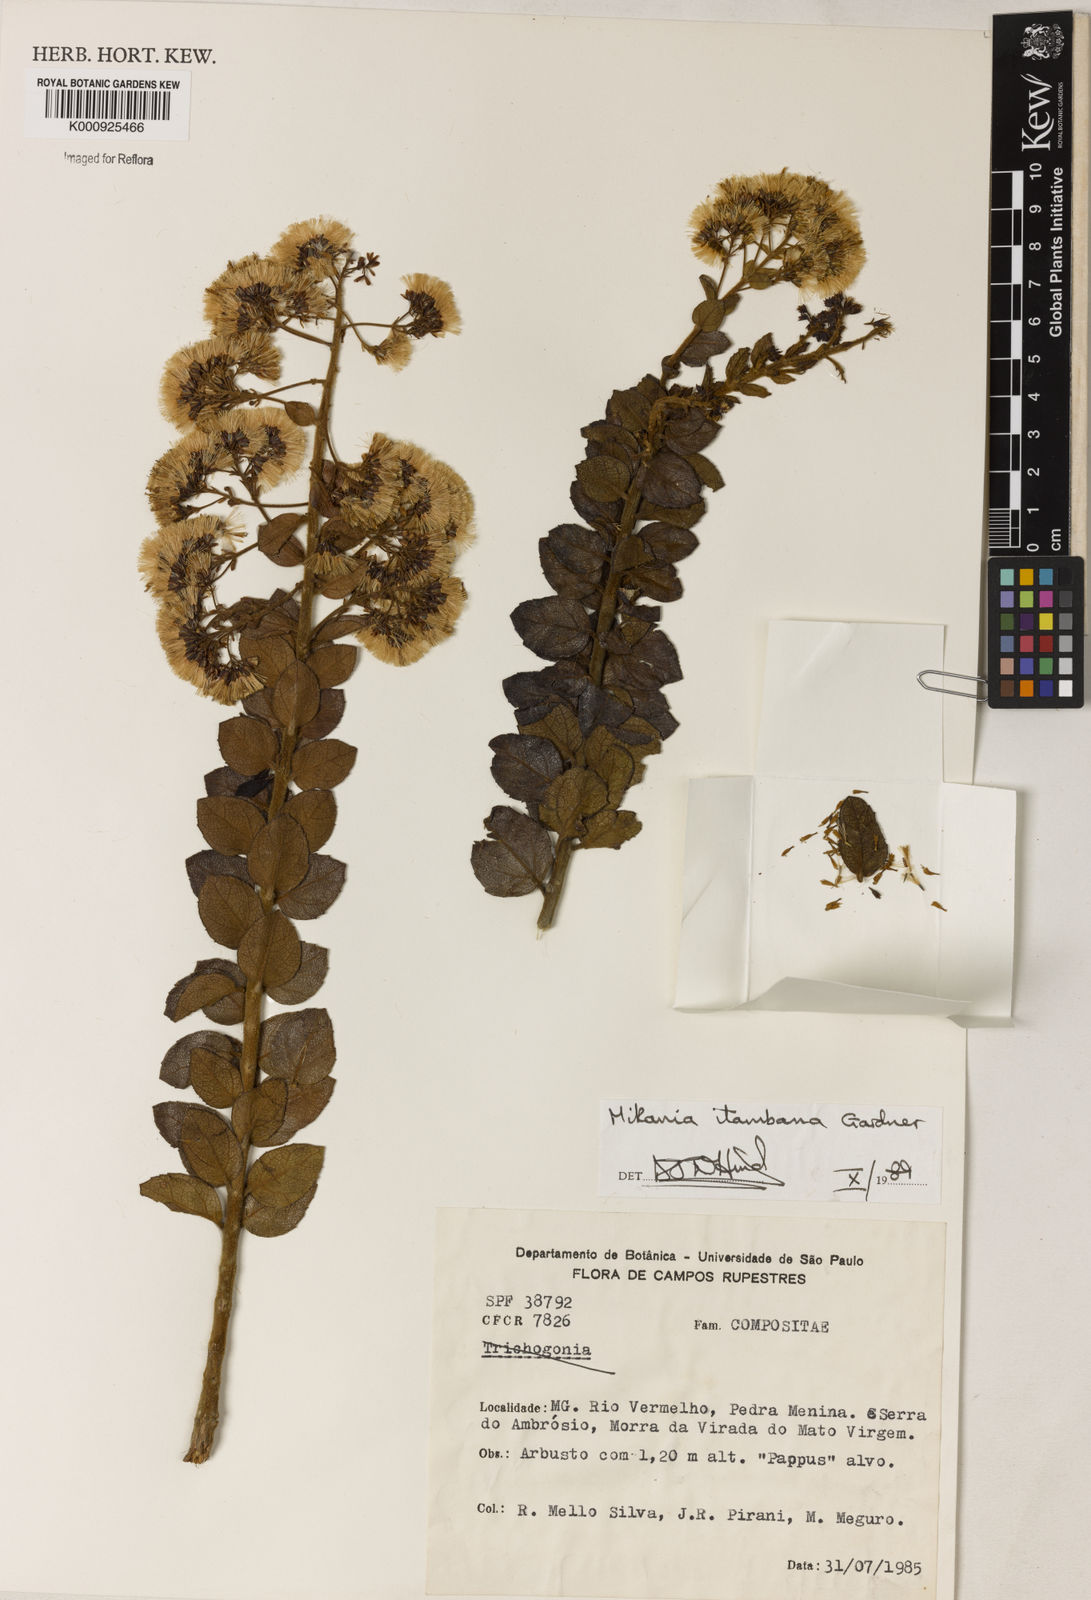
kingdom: Plantae
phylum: Tracheophyta
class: Magnoliopsida
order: Asterales
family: Asteraceae
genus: Mikania
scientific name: Mikania itambana
